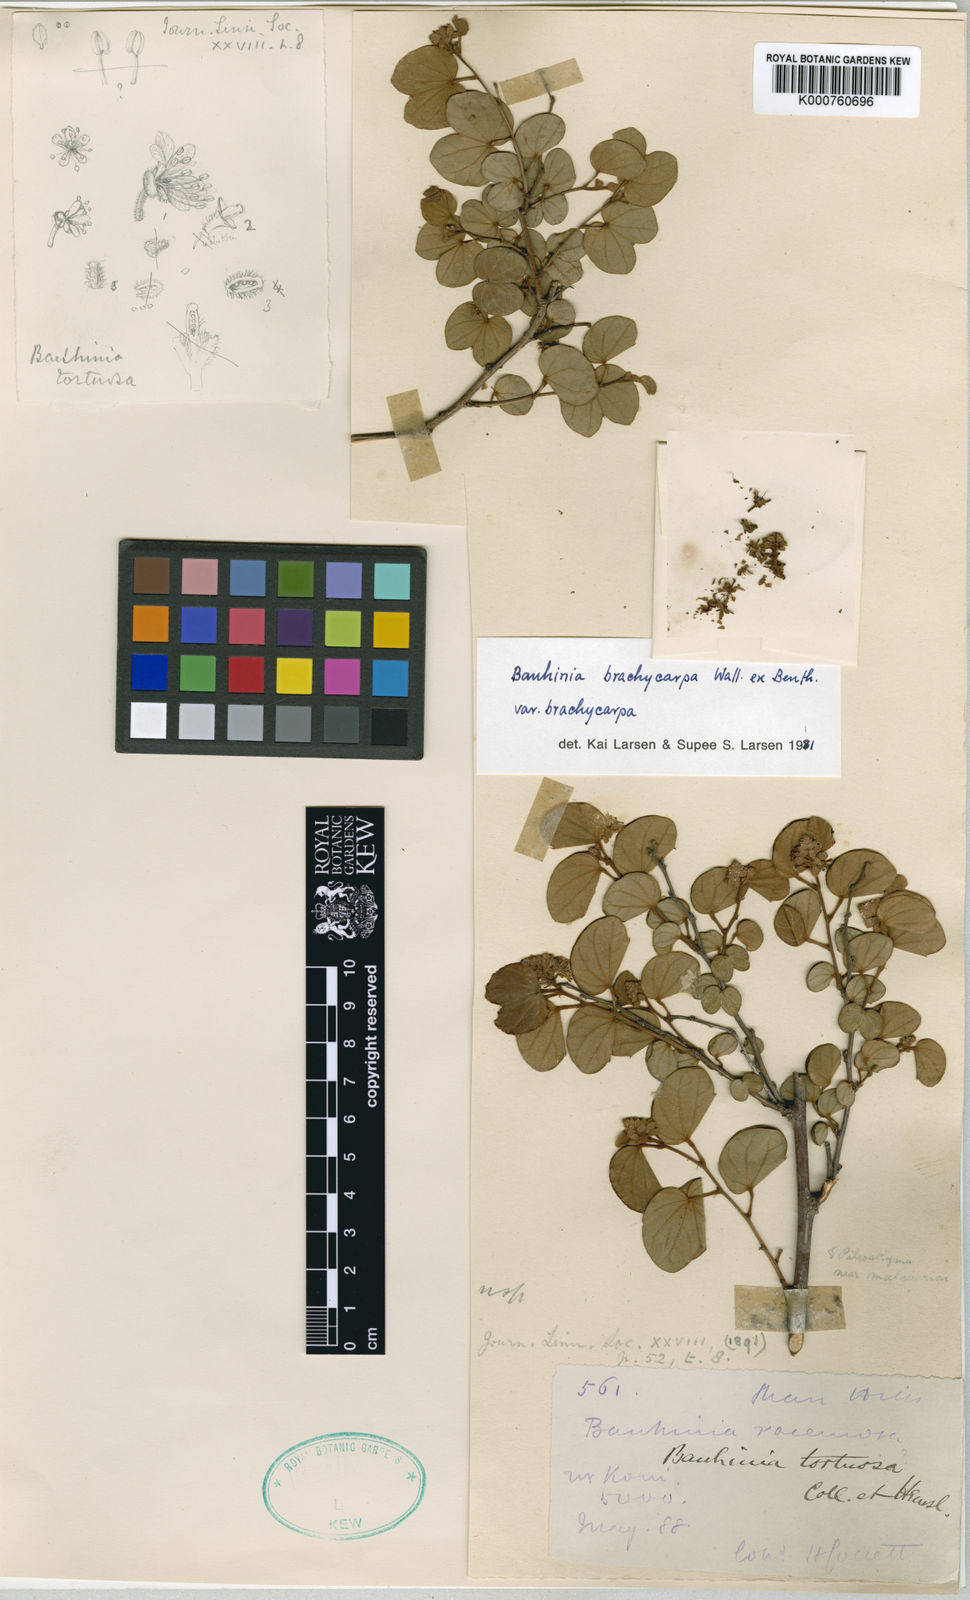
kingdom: Plantae
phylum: Tracheophyta
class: Magnoliopsida
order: Fabales
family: Fabaceae
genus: Bauhinia
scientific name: Bauhinia brachycarpa
